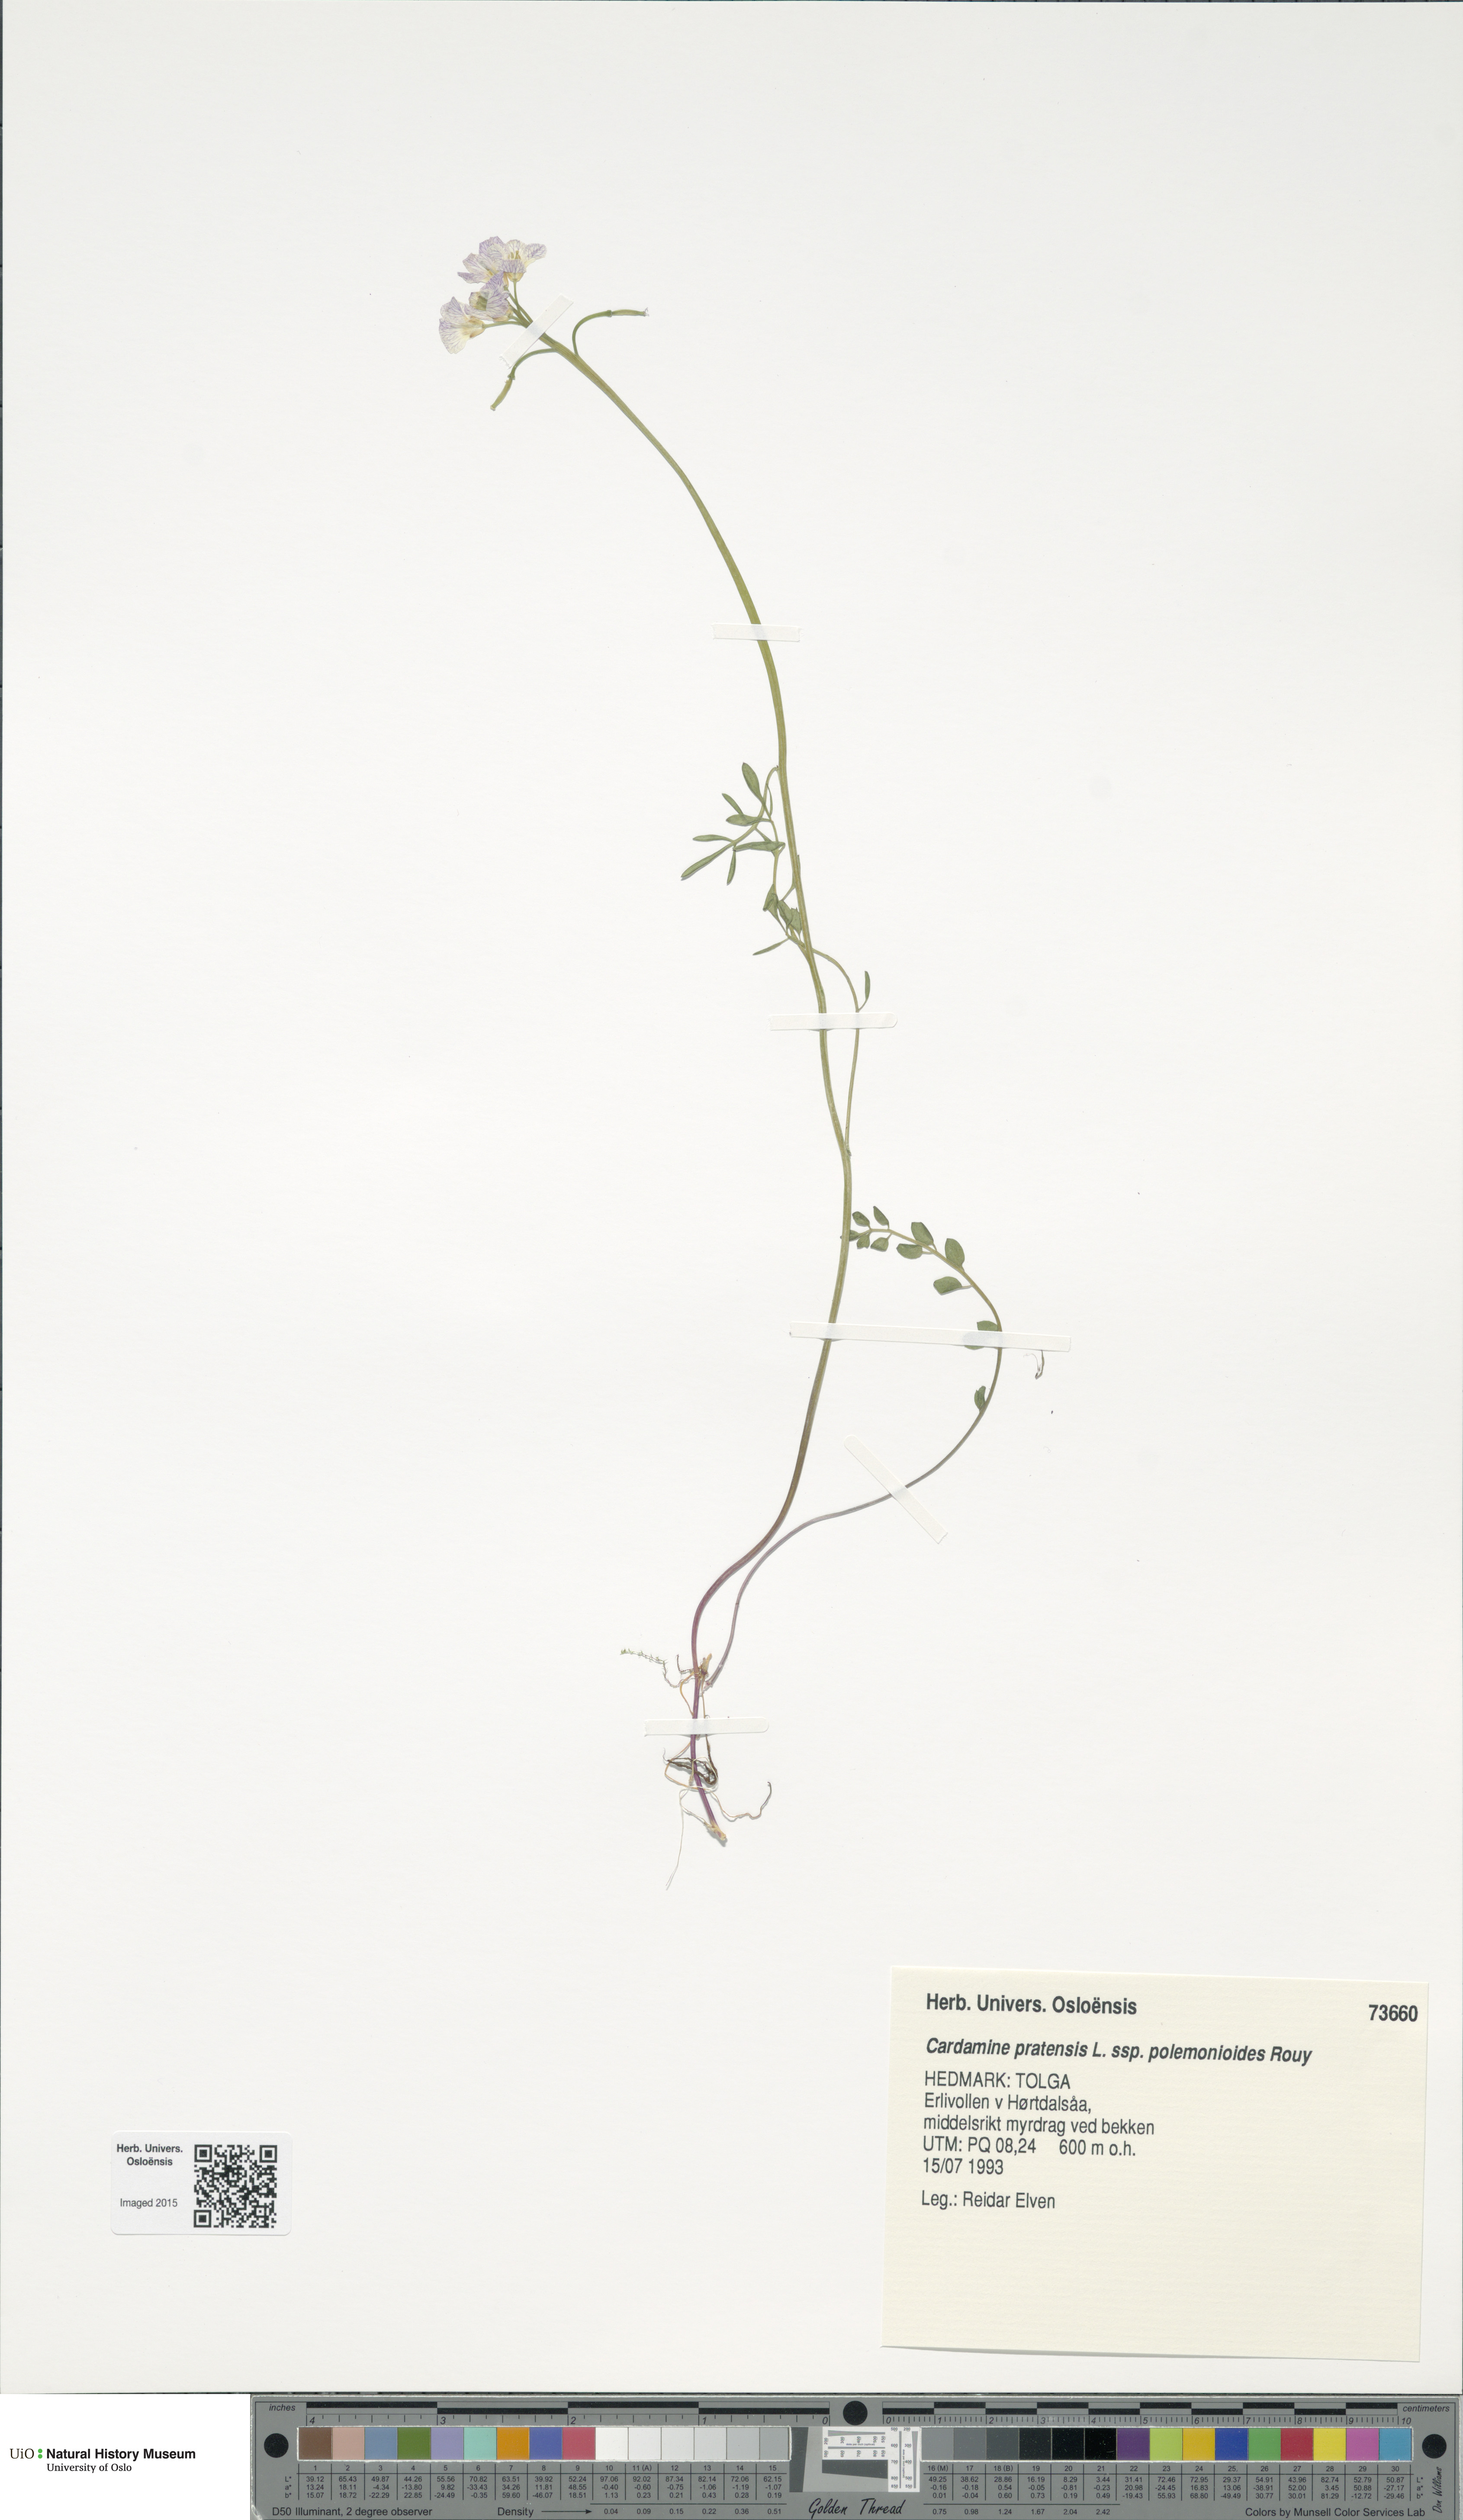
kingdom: Plantae
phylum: Tracheophyta
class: Magnoliopsida
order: Brassicales
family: Brassicaceae
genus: Cardamine
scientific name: Cardamine nymanii
